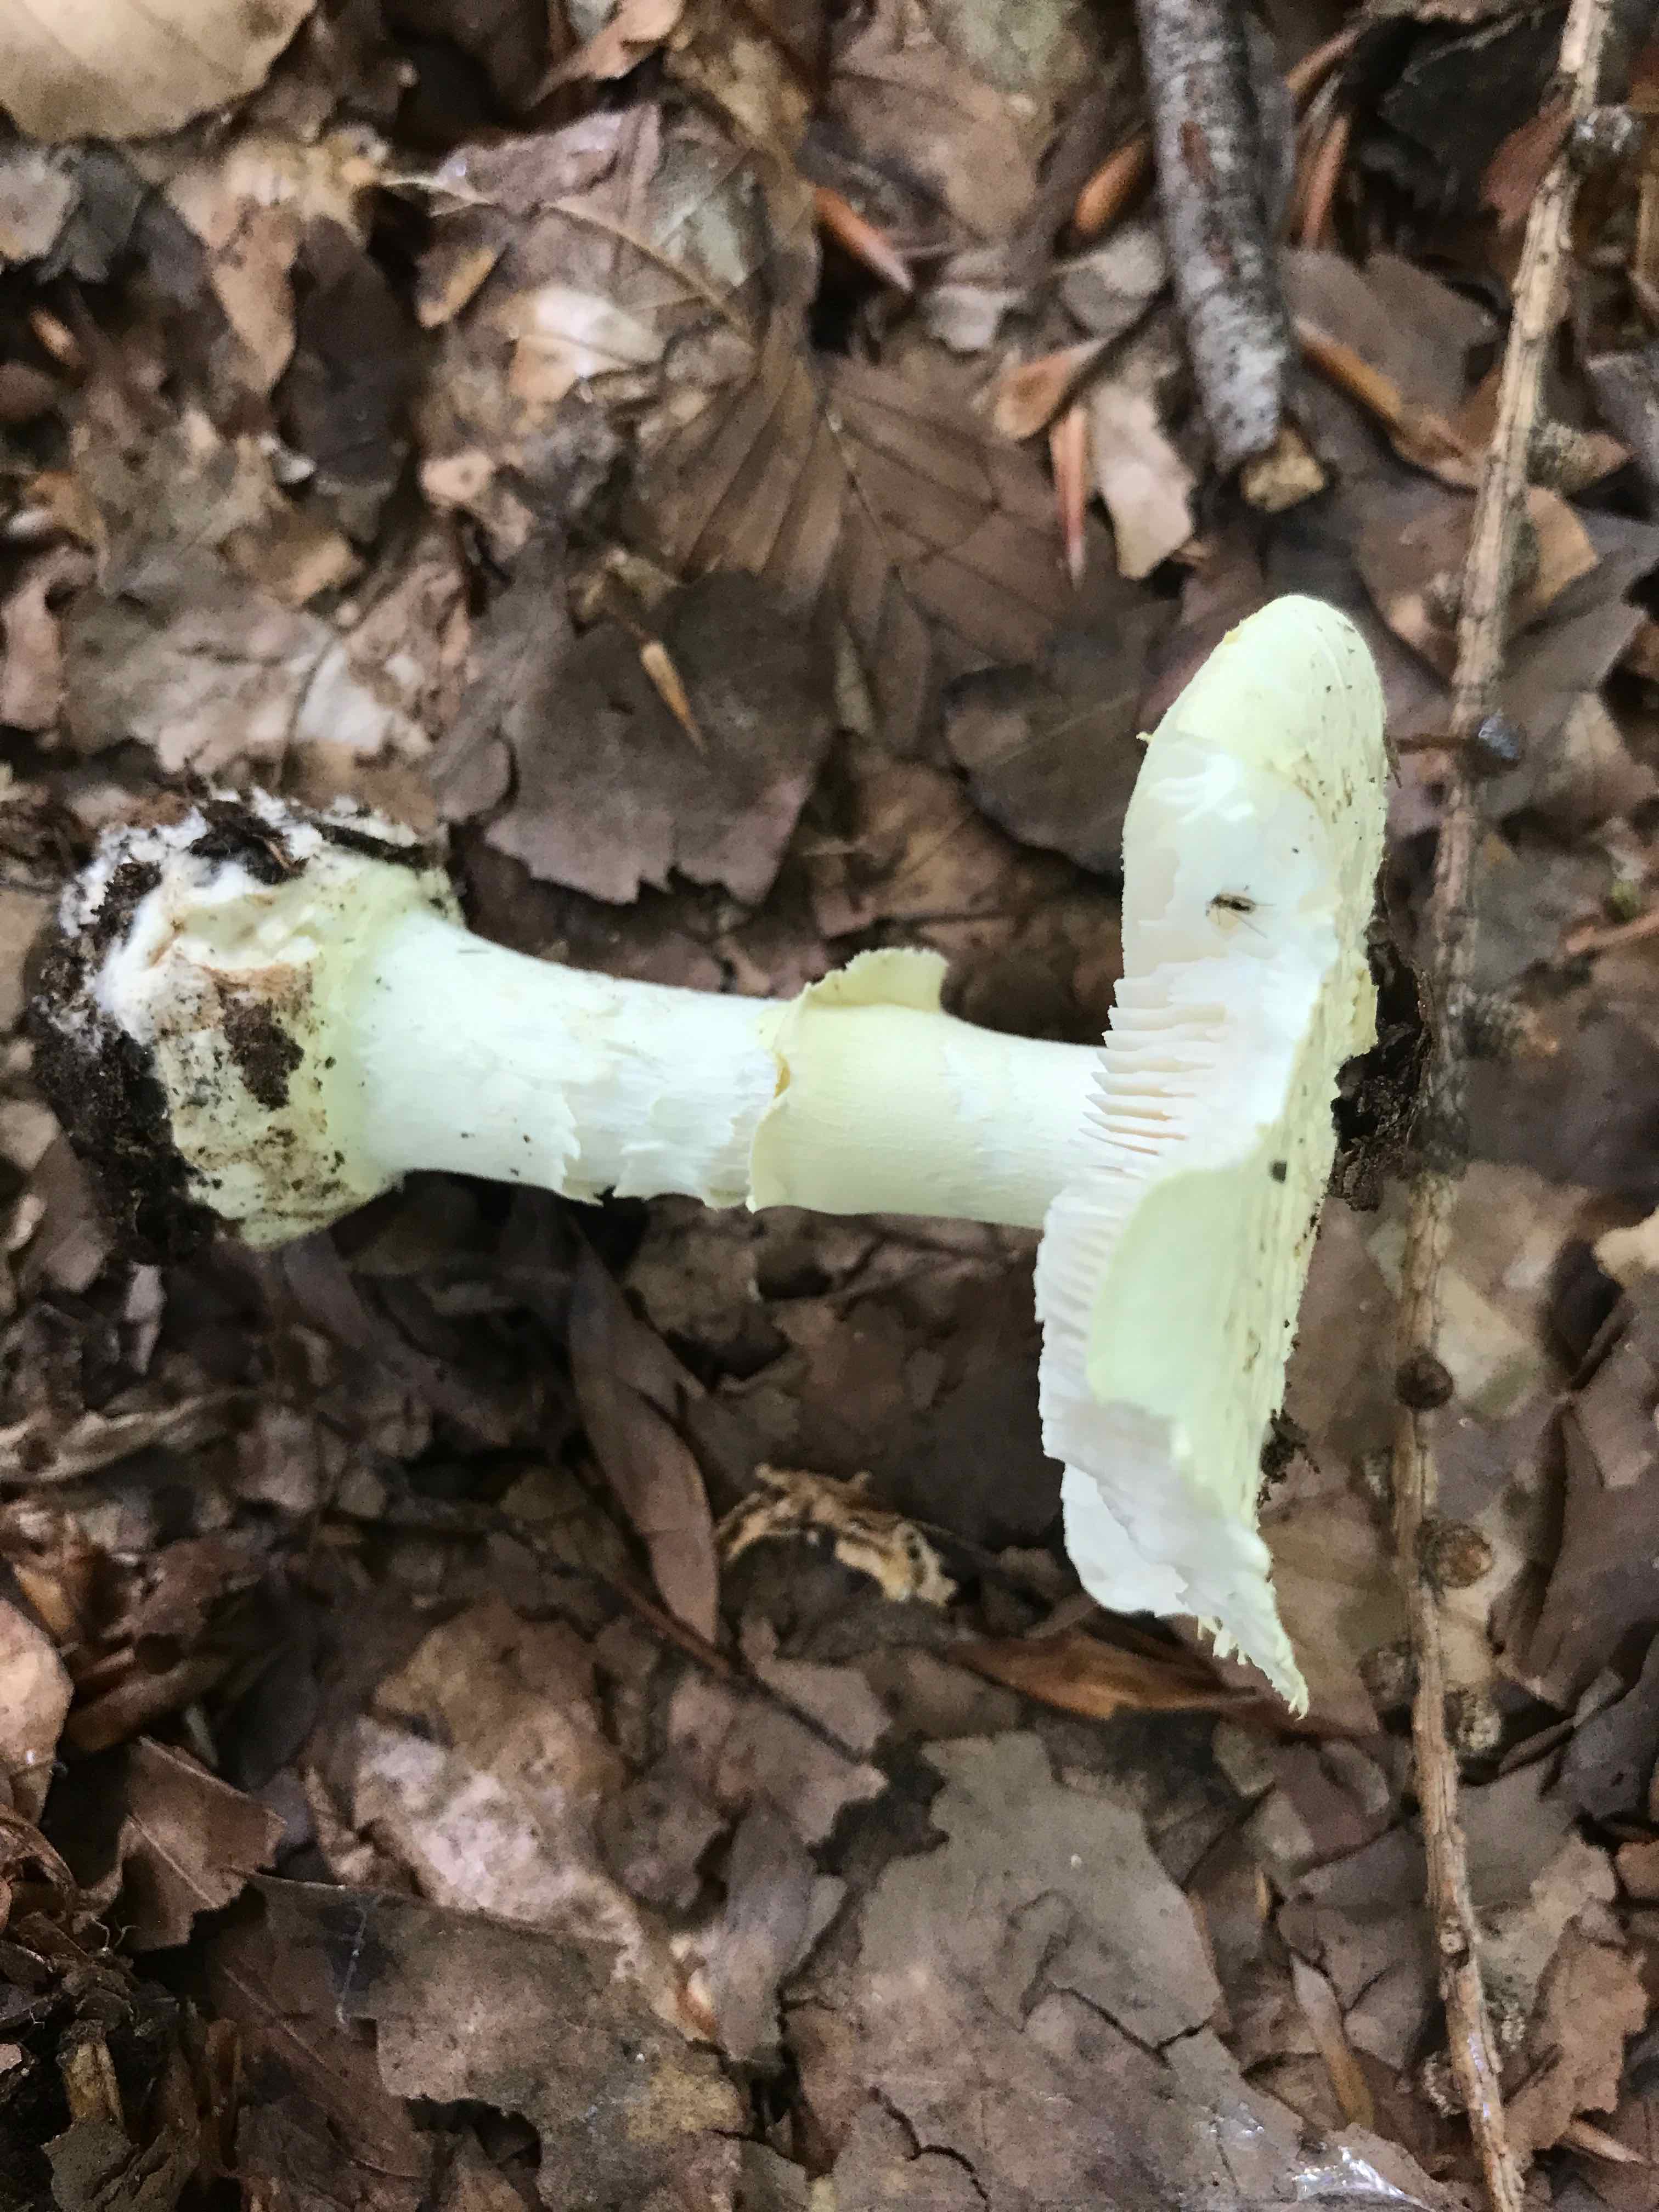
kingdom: Fungi
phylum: Basidiomycota
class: Agaricomycetes
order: Agaricales
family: Amanitaceae
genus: Amanita
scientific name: Amanita citrina
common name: kugleknoldet fluesvamp
